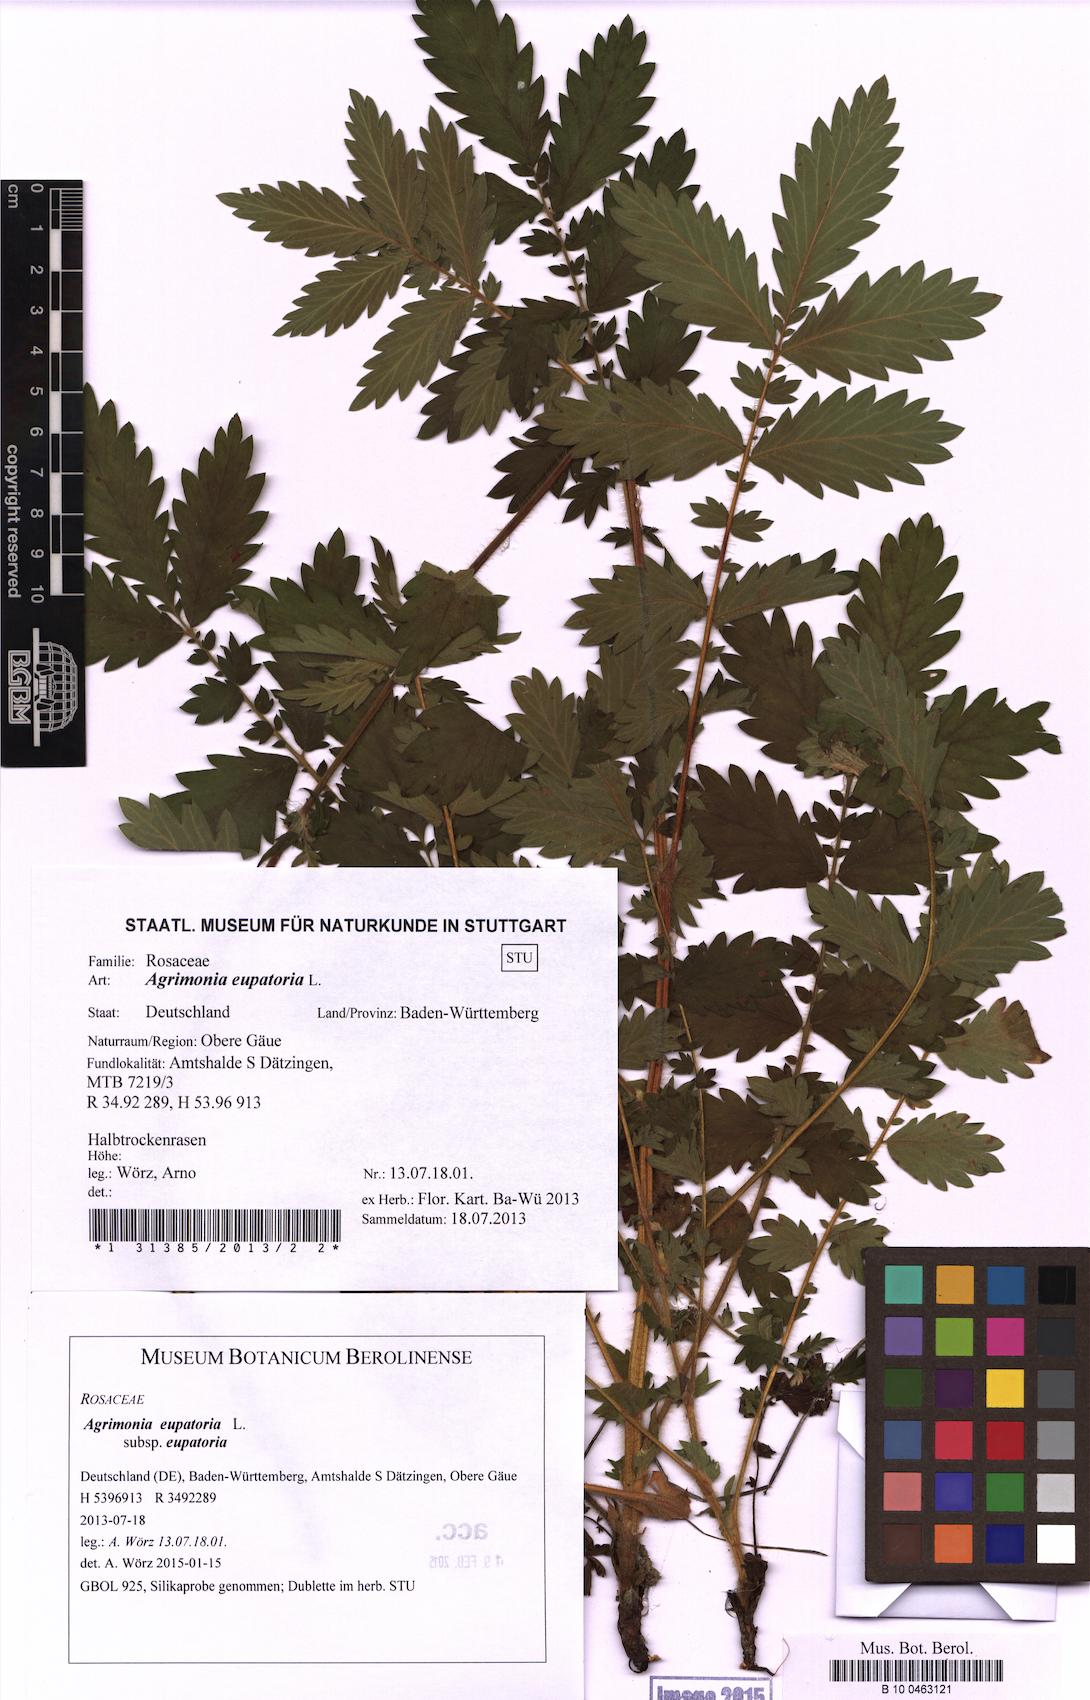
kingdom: Plantae
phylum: Tracheophyta
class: Magnoliopsida
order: Rosales
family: Rosaceae
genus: Agrimonia
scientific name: Agrimonia eupatoria
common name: Agrimony
